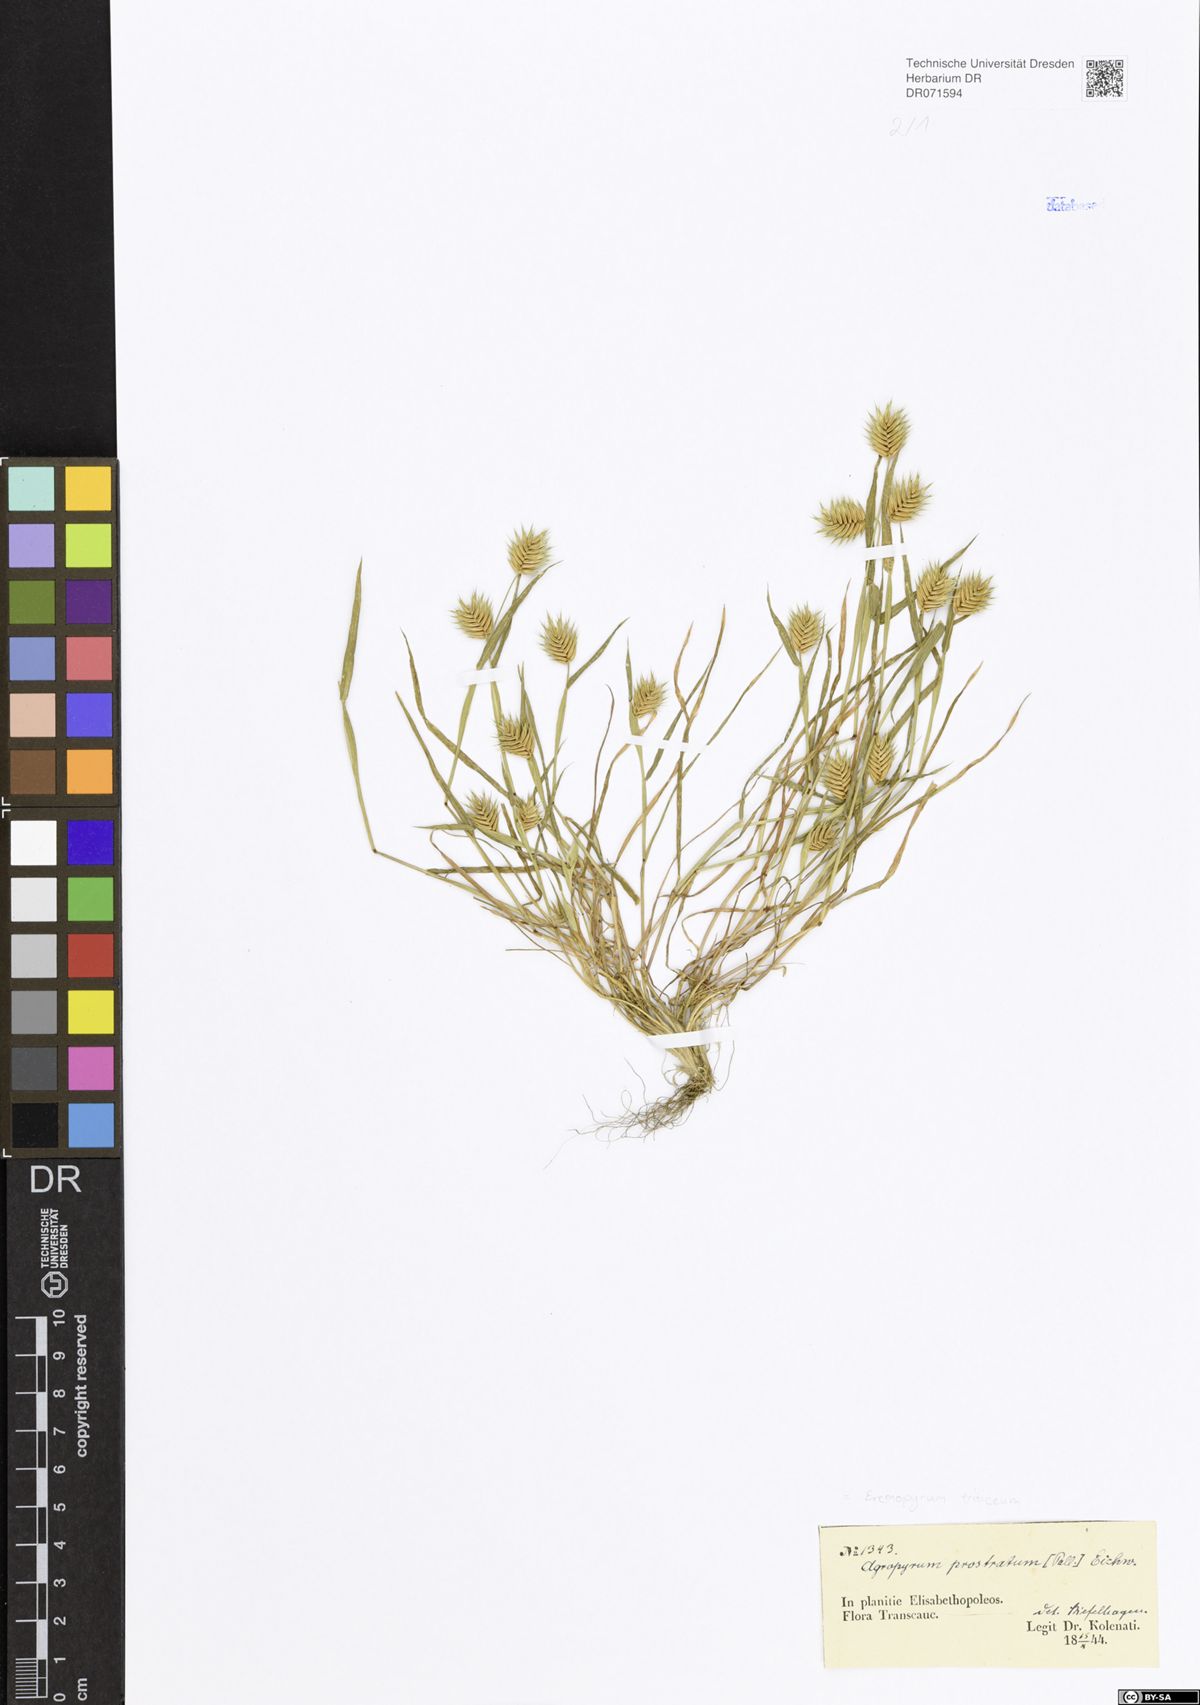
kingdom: Plantae
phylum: Tracheophyta
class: Liliopsida
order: Poales
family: Poaceae
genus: Eremopyrum
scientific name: Eremopyrum triticeum
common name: Annual wheatgrass
